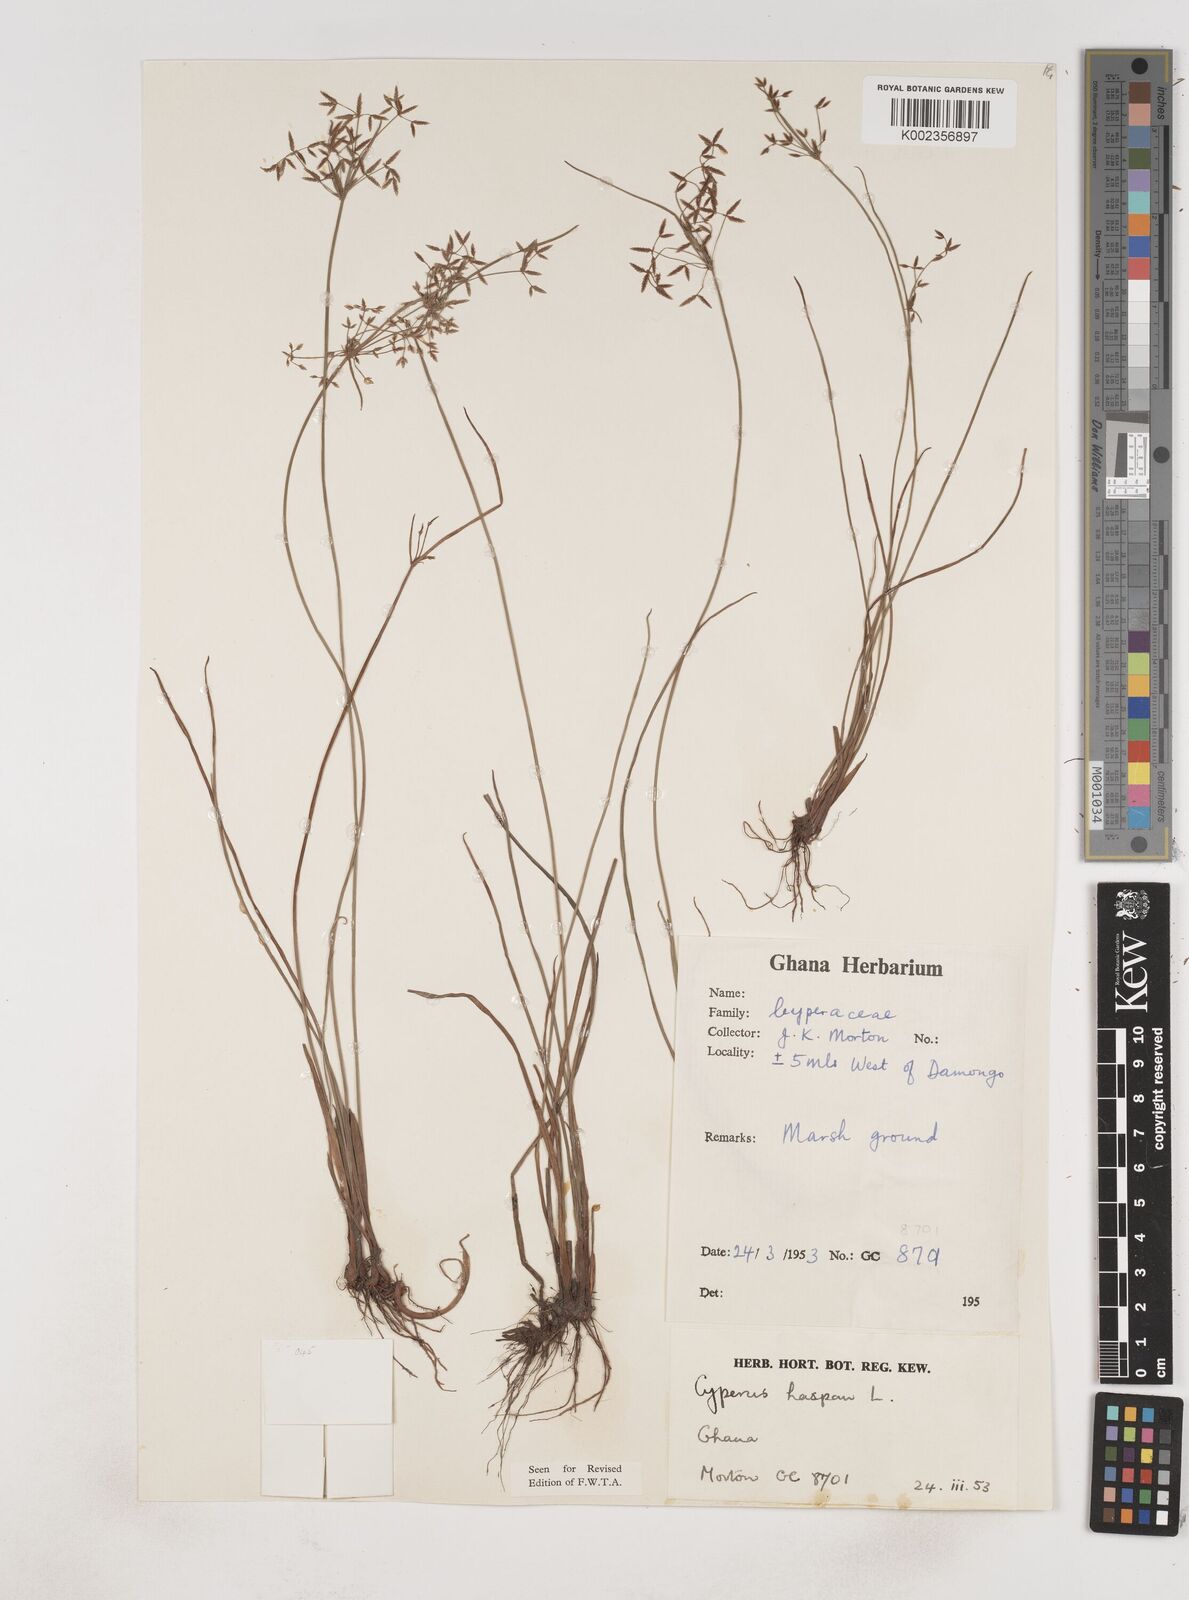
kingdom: Plantae
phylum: Tracheophyta
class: Liliopsida
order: Poales
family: Cyperaceae
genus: Cyperus
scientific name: Cyperus haspan
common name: Haspan flatsedge
